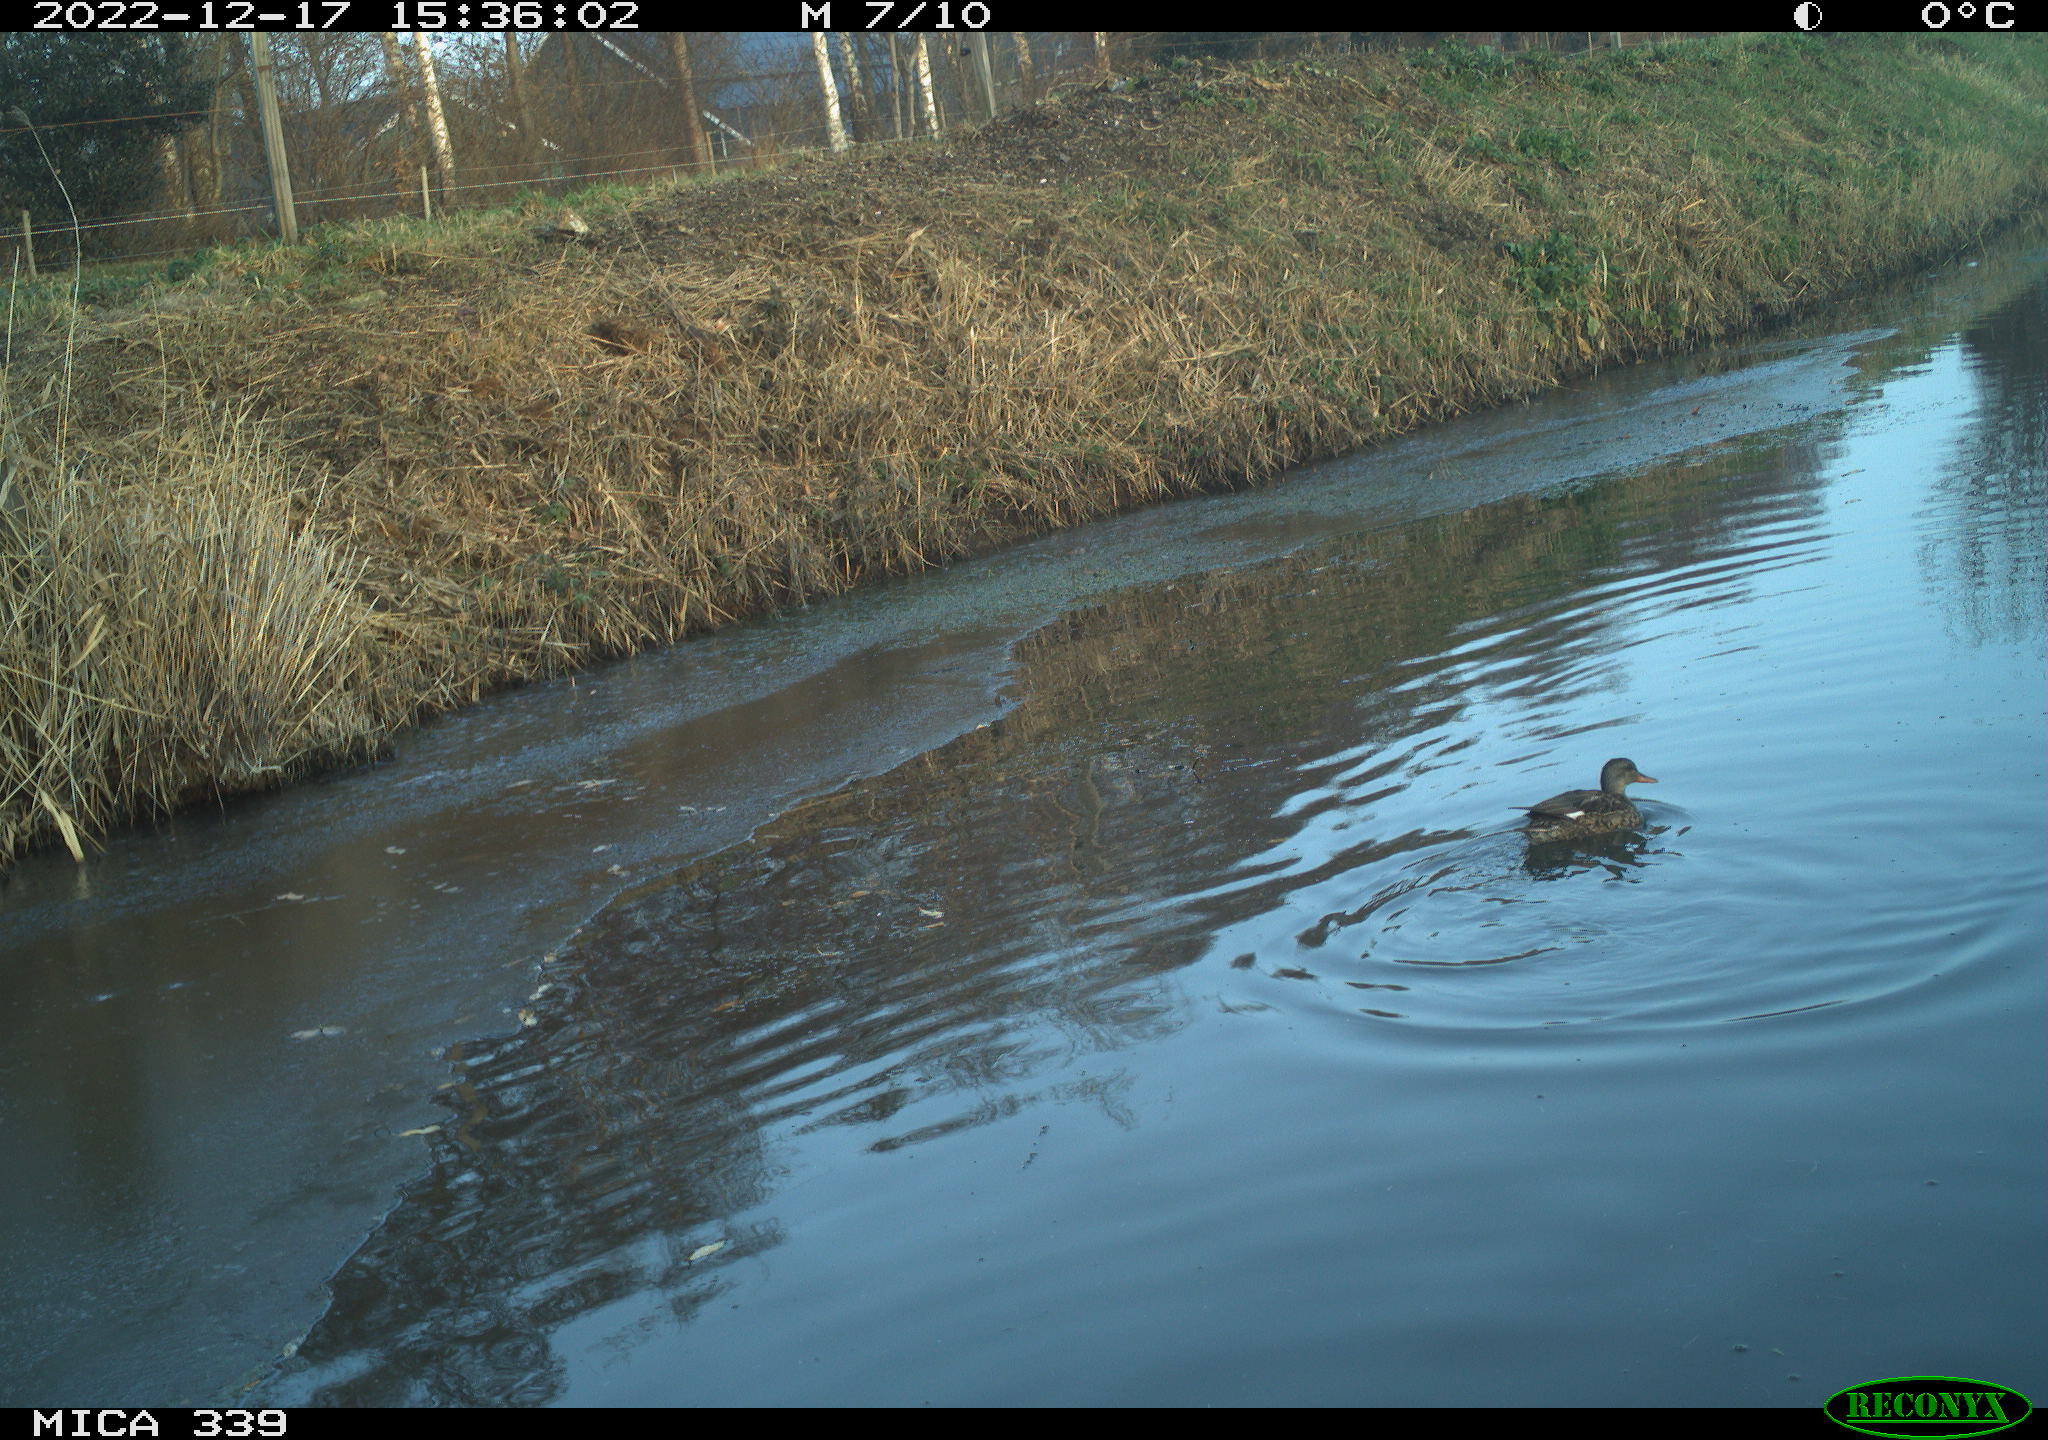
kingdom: Animalia
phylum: Chordata
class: Aves
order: Anseriformes
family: Anatidae
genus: Anas
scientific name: Anas
